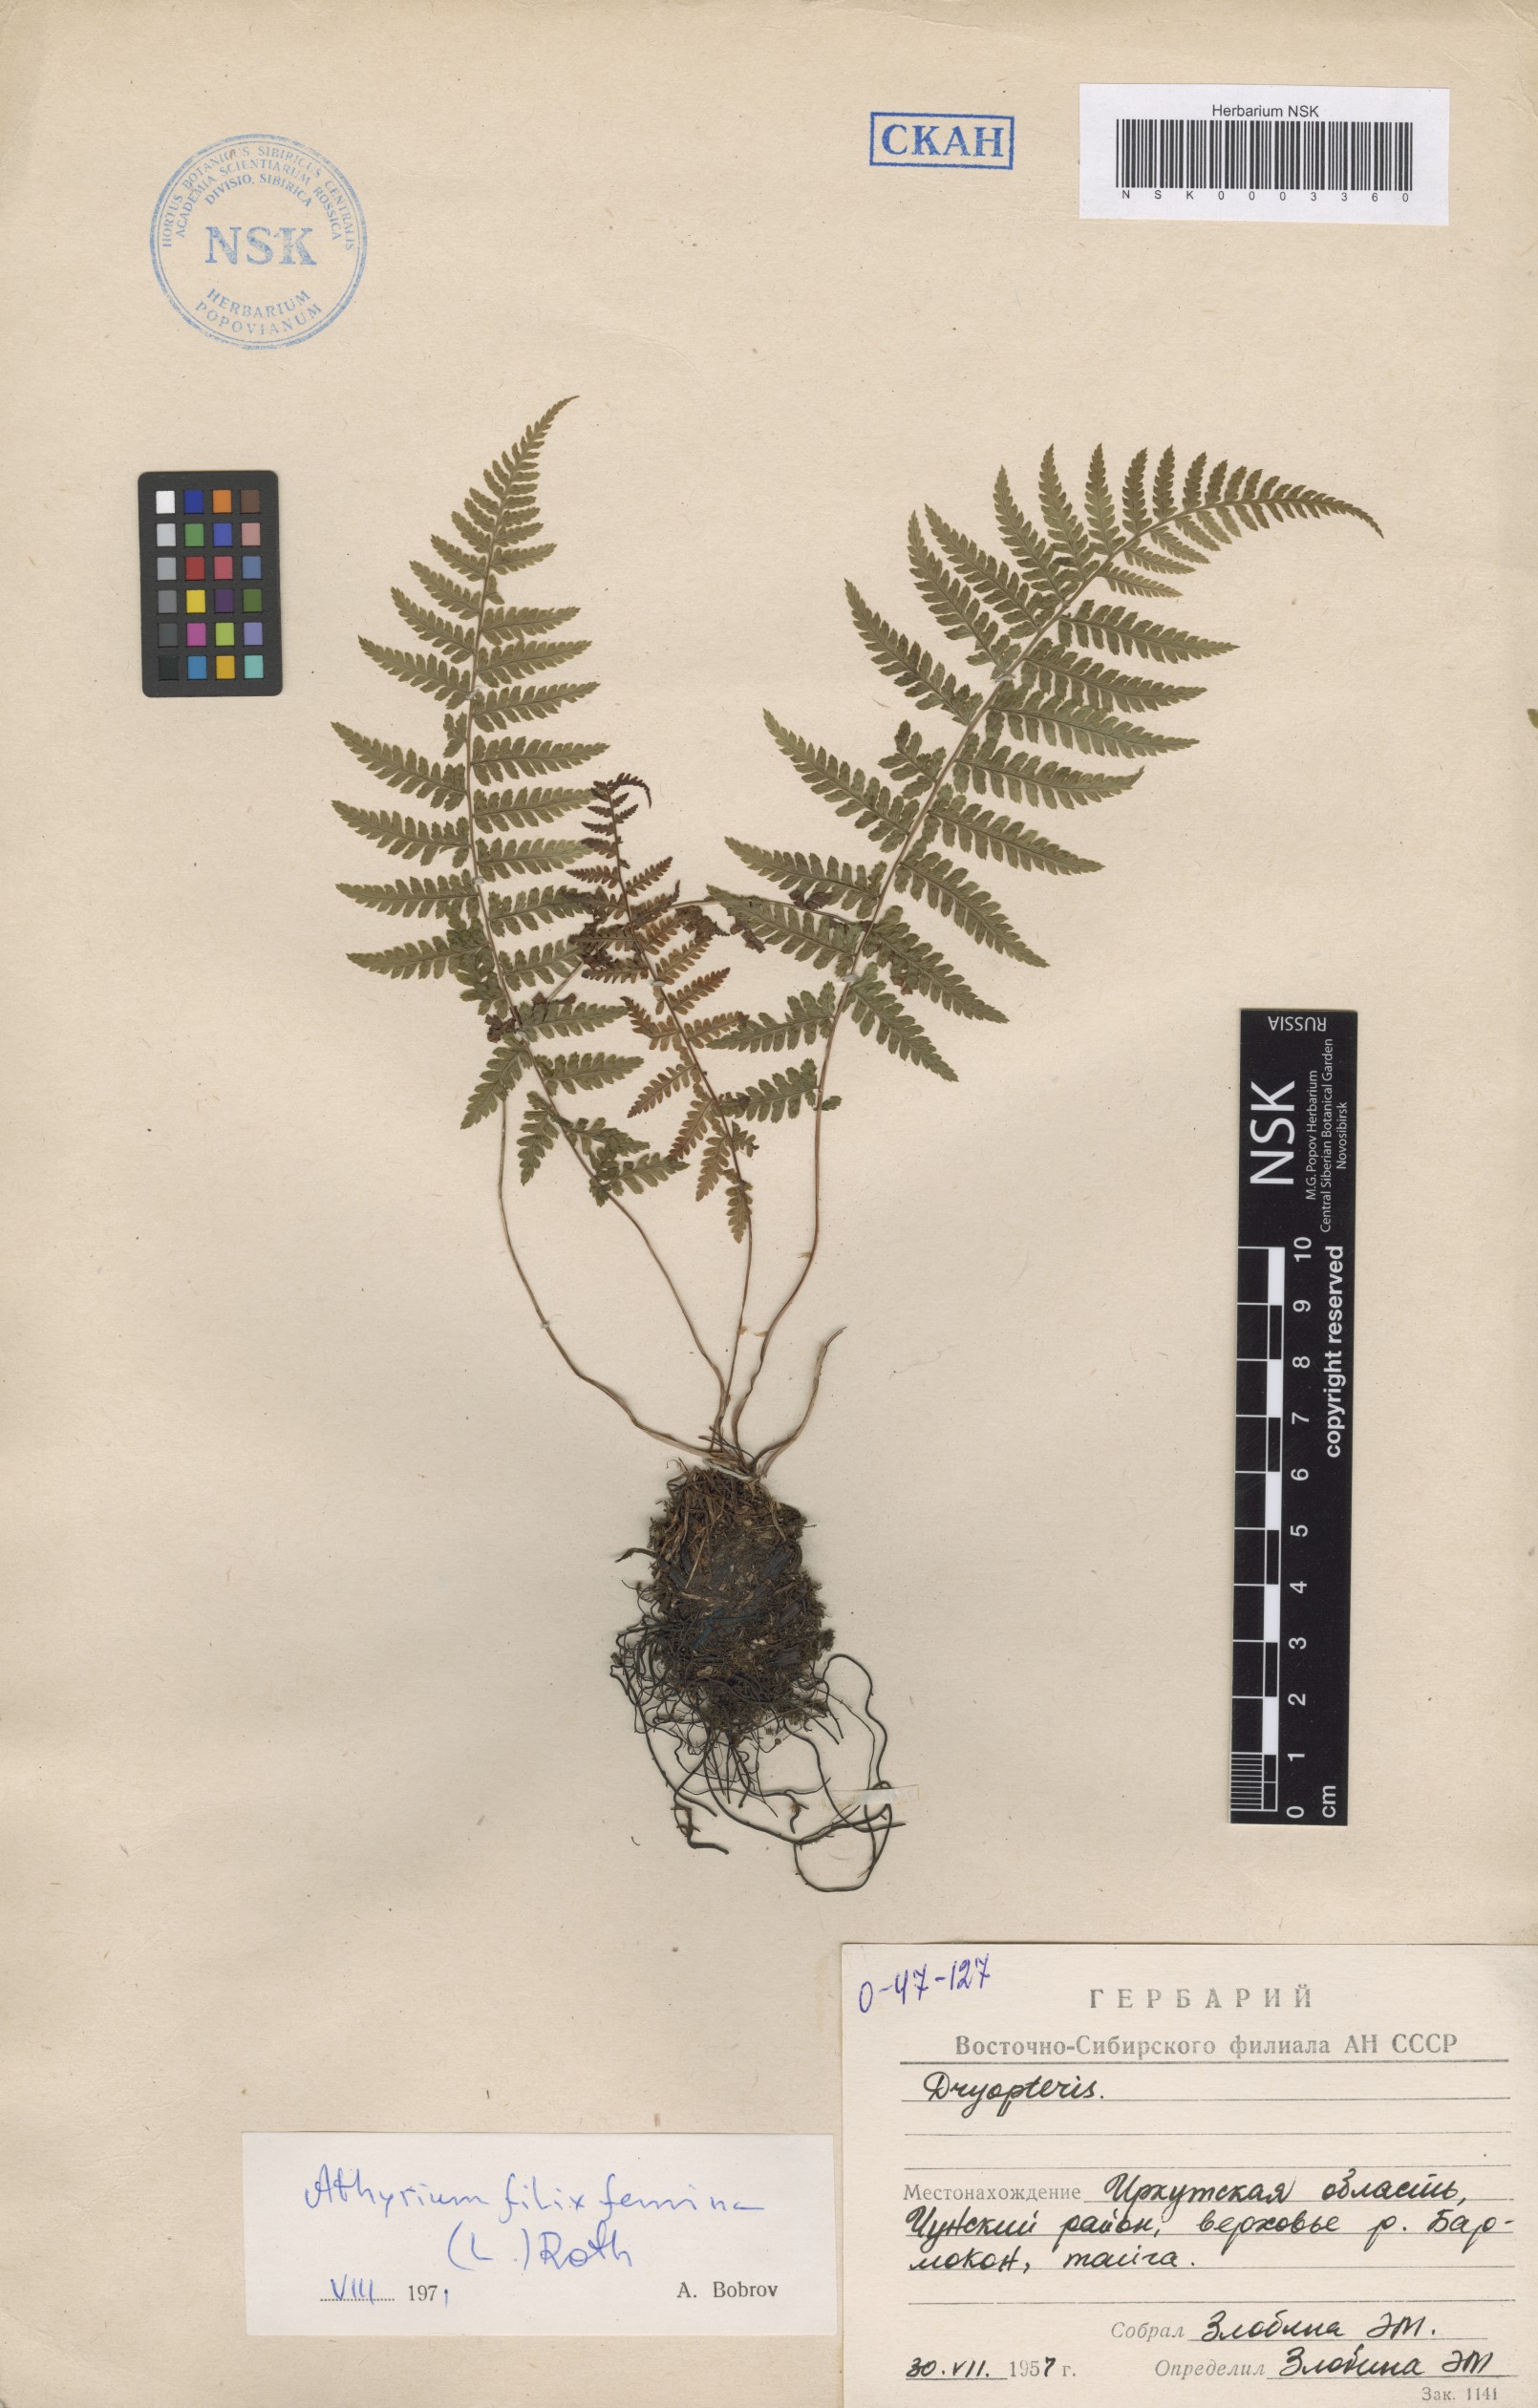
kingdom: Plantae
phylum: Tracheophyta
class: Polypodiopsida
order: Polypodiales
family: Athyriaceae
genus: Athyrium
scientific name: Athyrium filix-femina
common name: Lady fern
